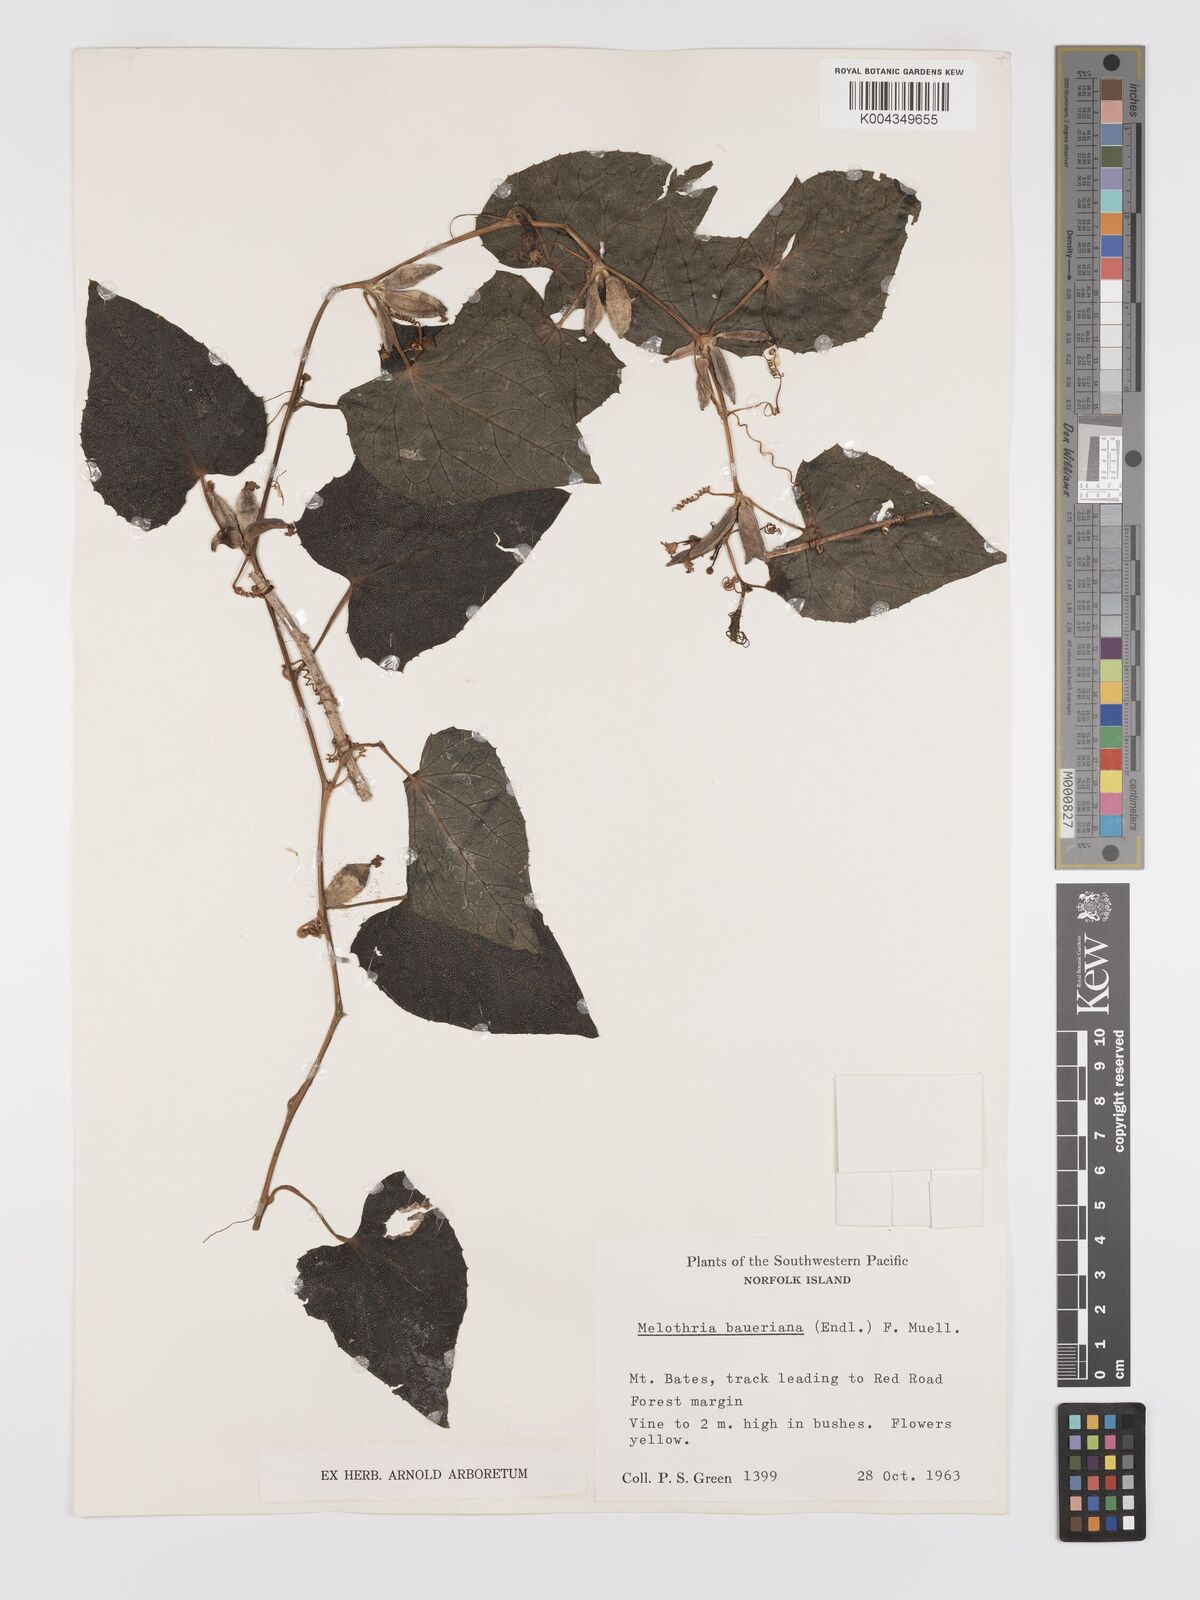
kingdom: Plantae
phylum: Tracheophyta
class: Magnoliopsida
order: Cucurbitales
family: Cucurbitaceae
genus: Zehneria
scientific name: Zehneria mucronata
